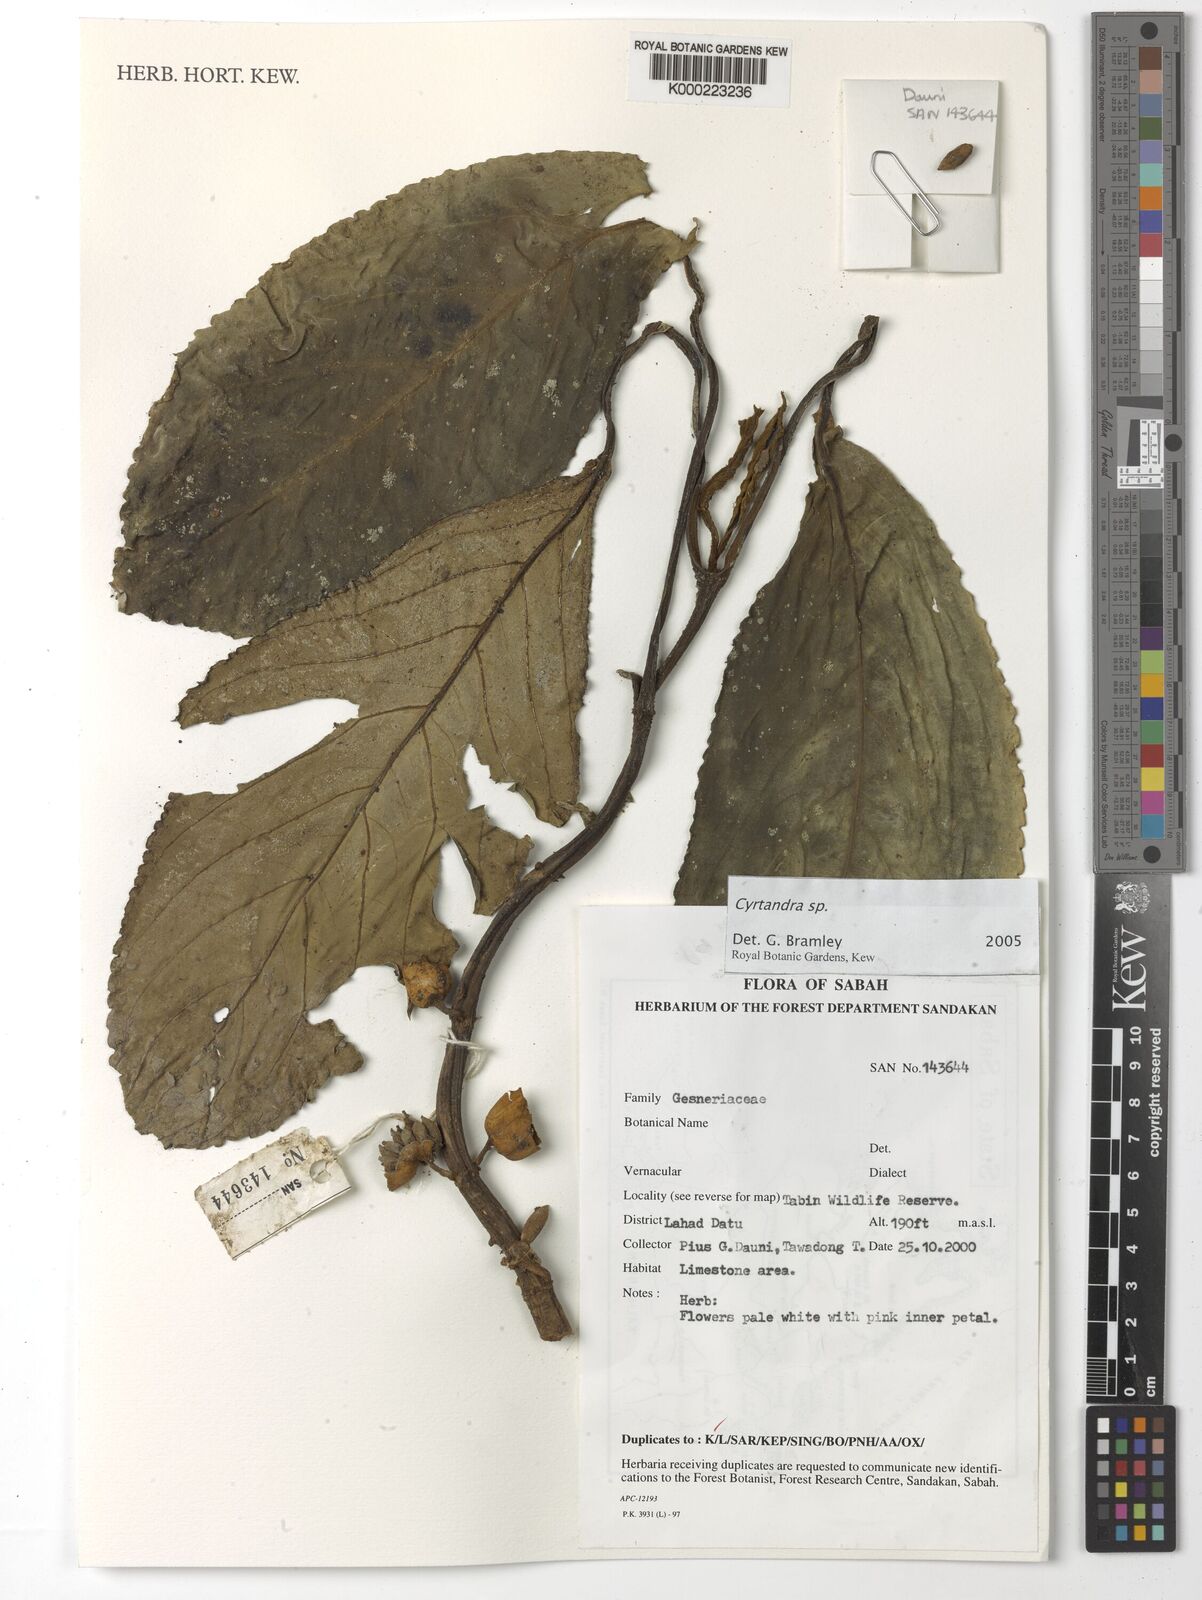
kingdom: Plantae
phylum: Tracheophyta
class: Magnoliopsida
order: Lamiales
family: Gesneriaceae
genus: Cyrtandra
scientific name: Cyrtandra
